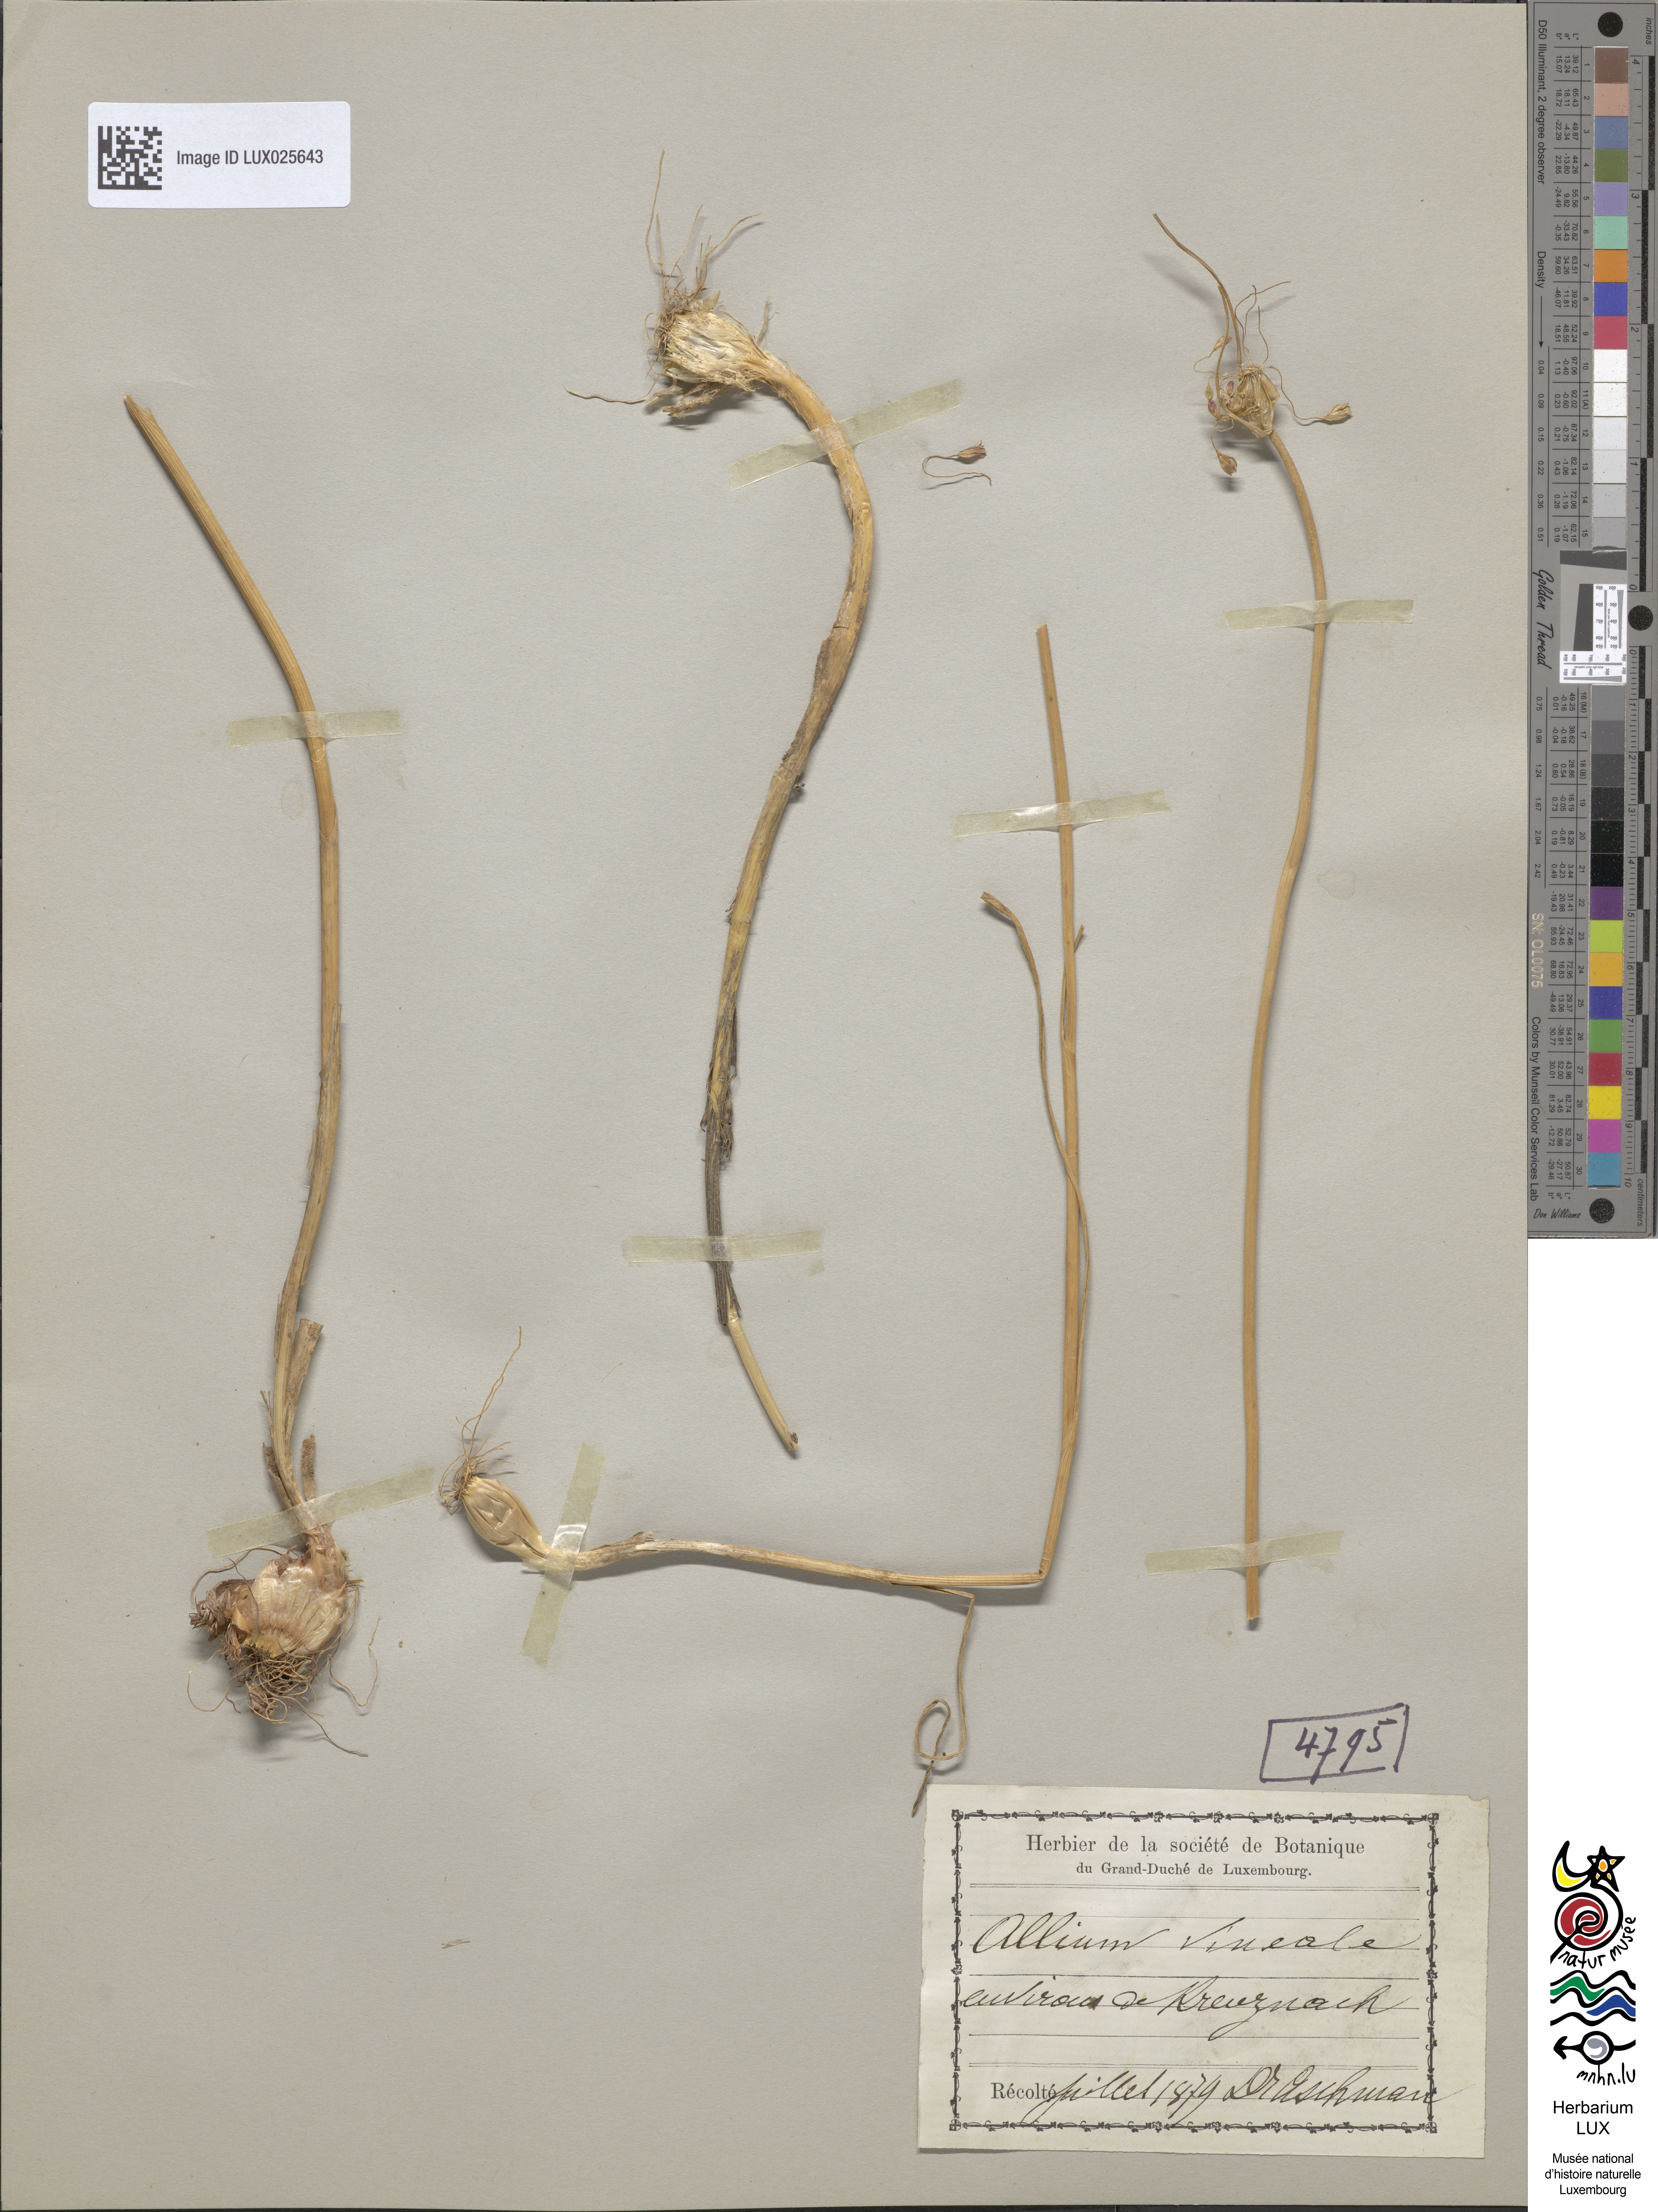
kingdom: Plantae
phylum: Tracheophyta
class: Liliopsida
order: Asparagales
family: Amaryllidaceae
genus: Allium
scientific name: Allium vineale
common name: Crow garlic
